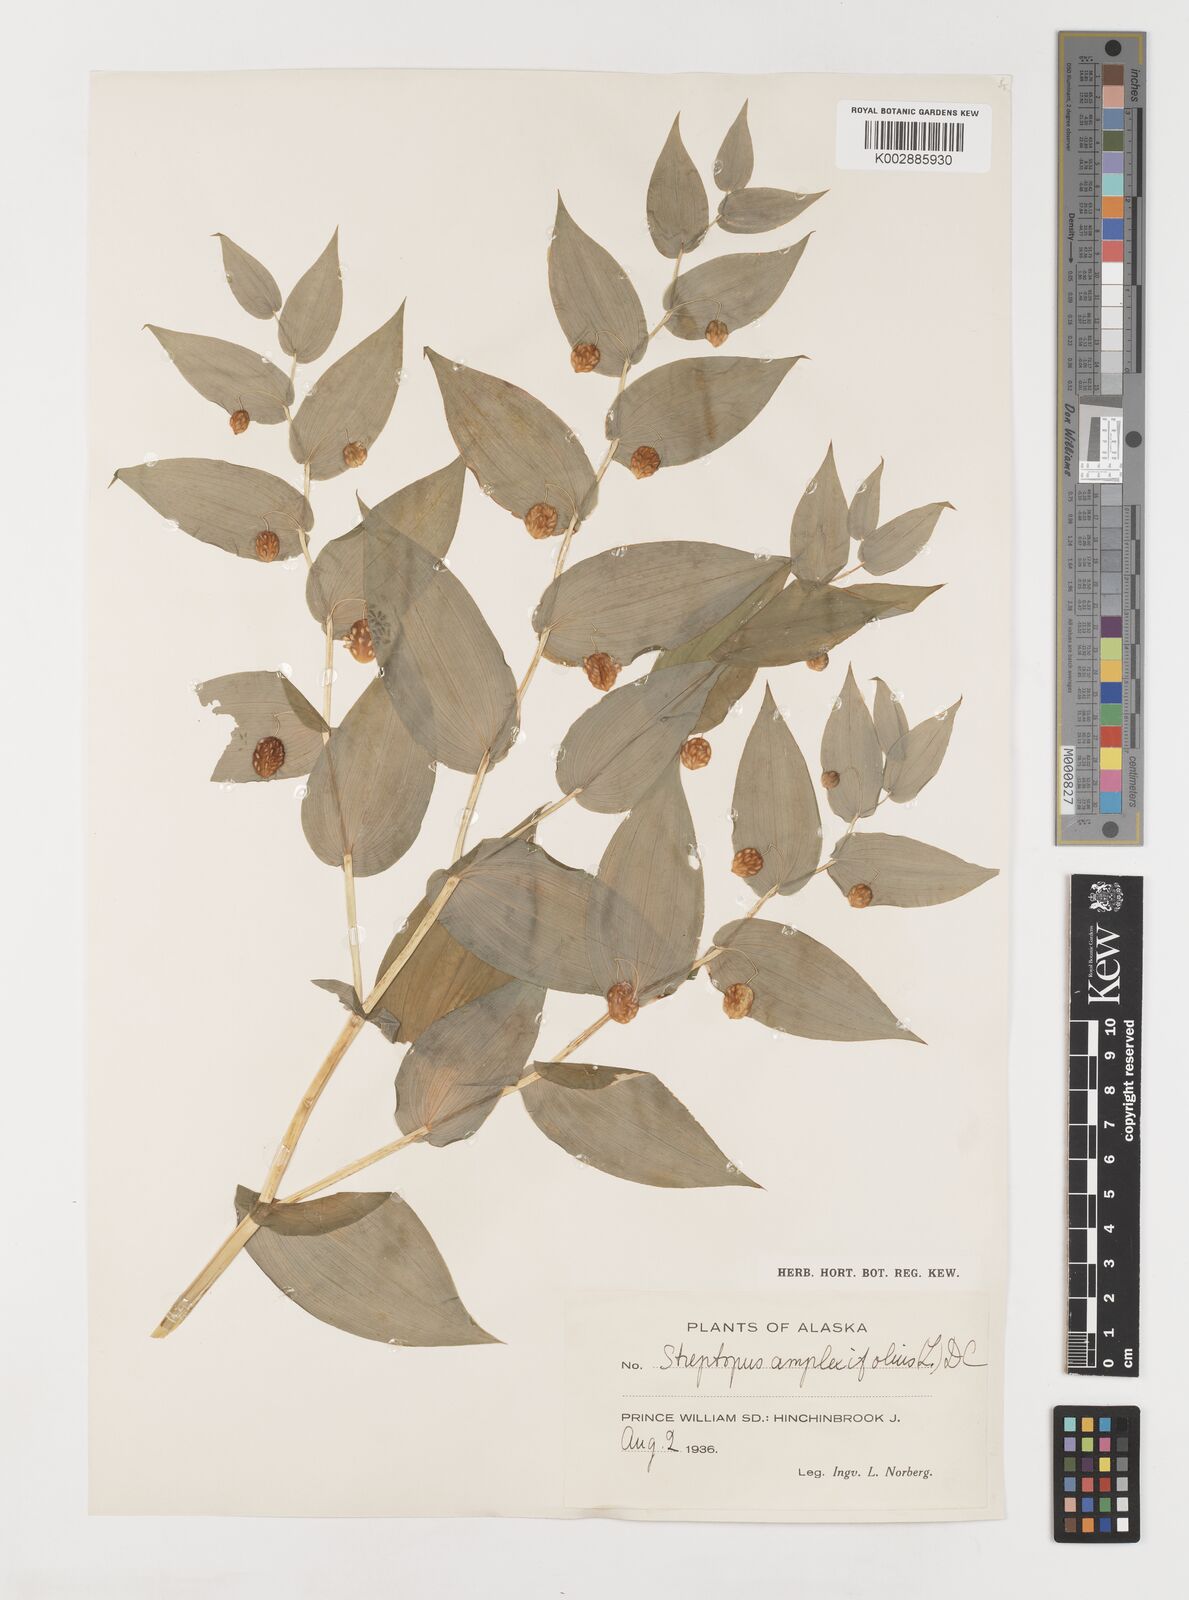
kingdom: Plantae
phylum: Tracheophyta
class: Liliopsida
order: Liliales
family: Liliaceae
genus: Streptopus
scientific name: Streptopus amplexifolius
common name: Clasp twisted stalk
